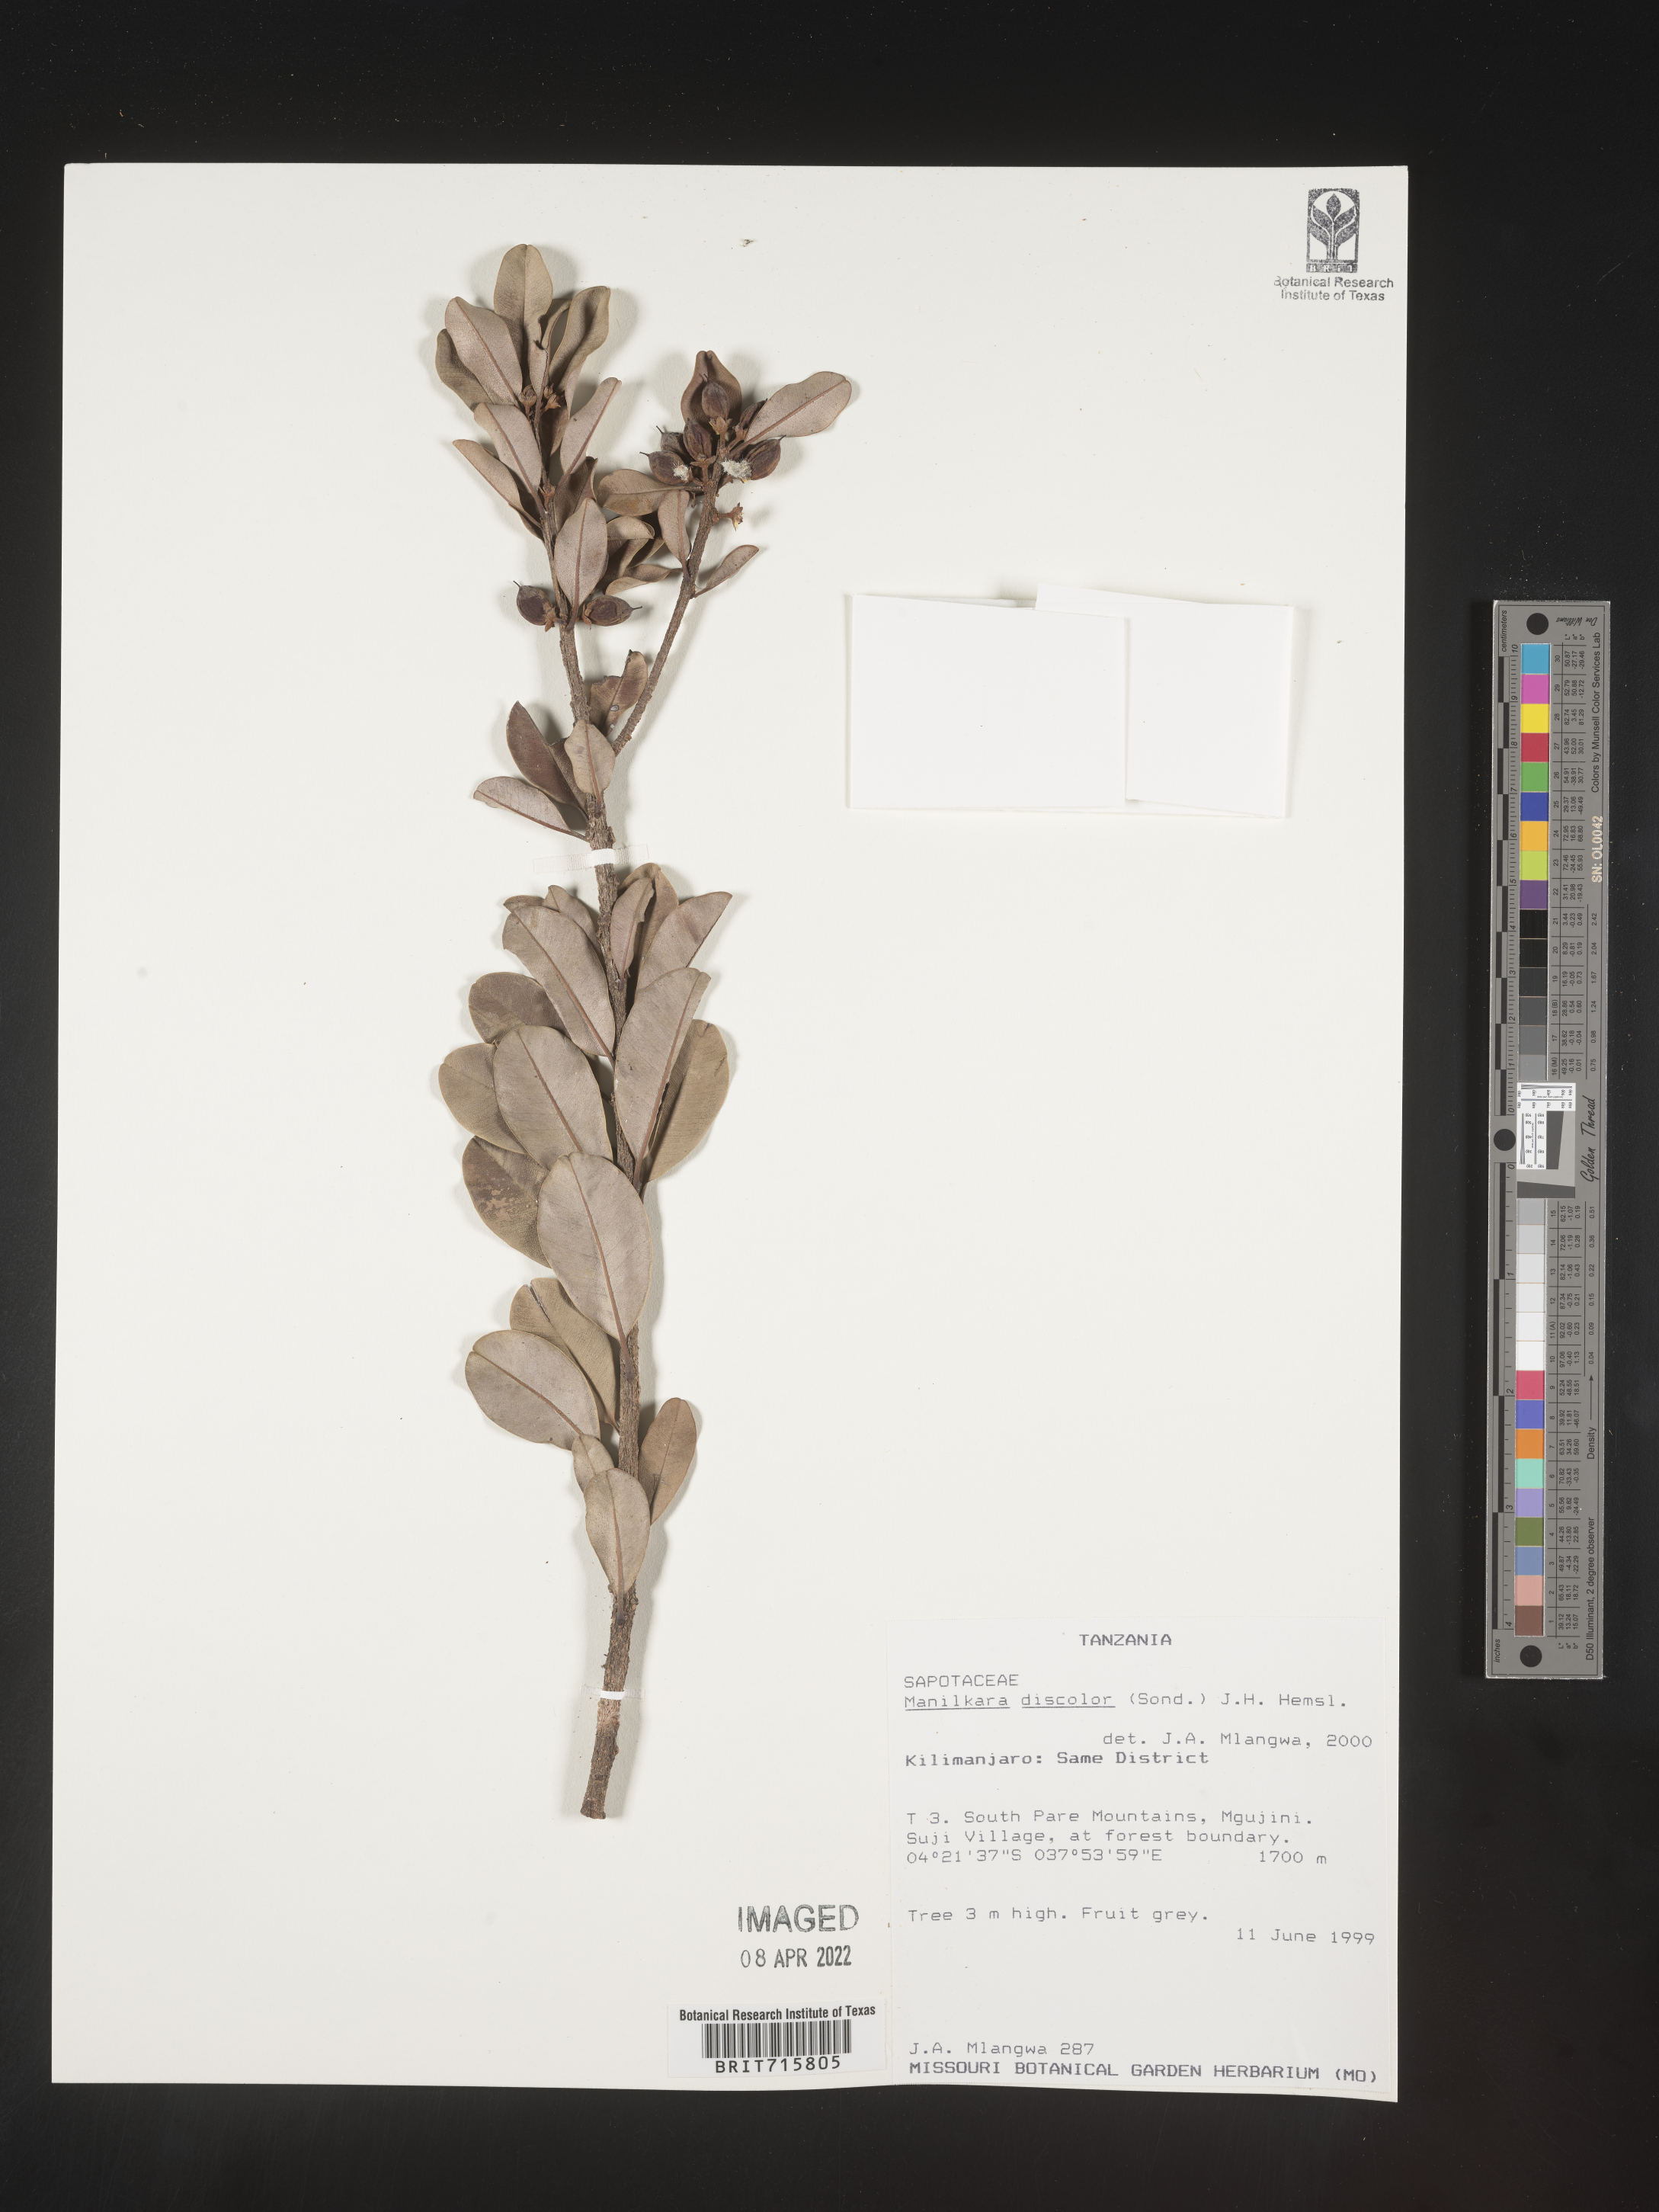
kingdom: Plantae
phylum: Tracheophyta
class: Magnoliopsida
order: Ericales
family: Sapotaceae
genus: Manilkara
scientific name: Manilkara
